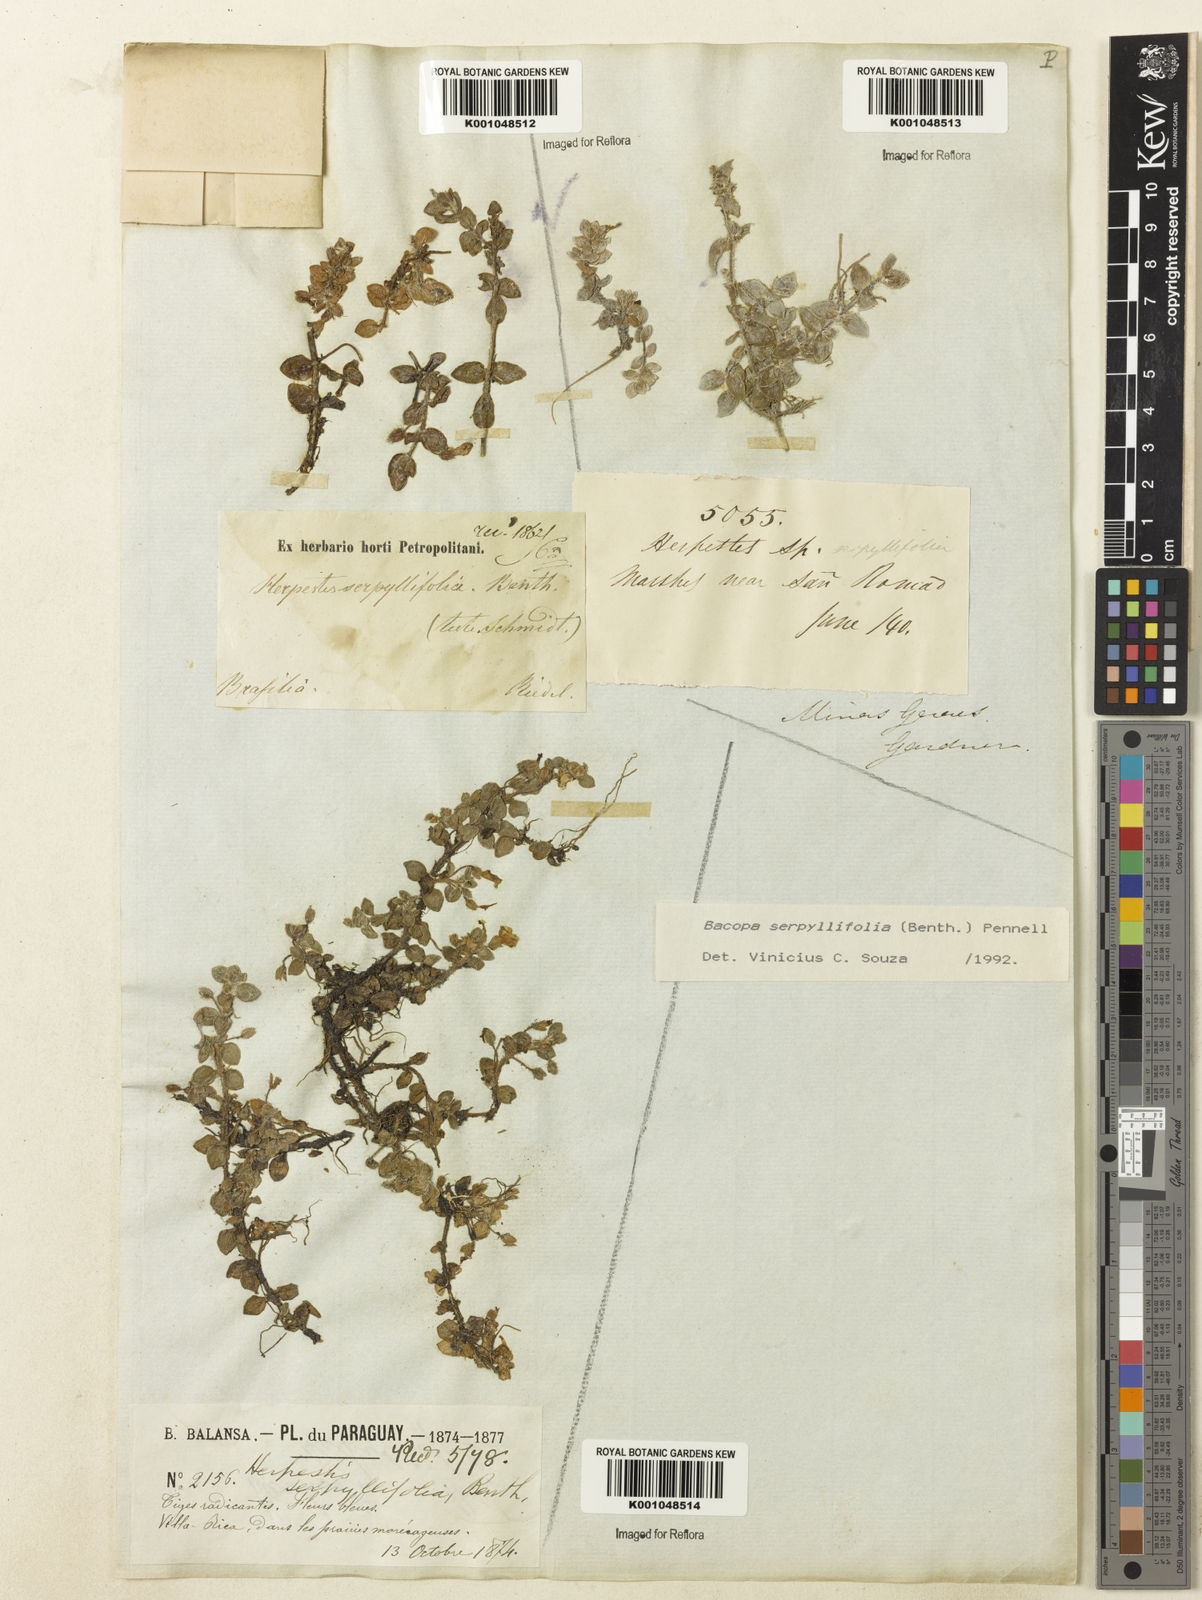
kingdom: Plantae
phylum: Tracheophyta
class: Magnoliopsida
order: Lamiales
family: Plantaginaceae
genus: Bacopa
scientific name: Bacopa serpyllifolia
